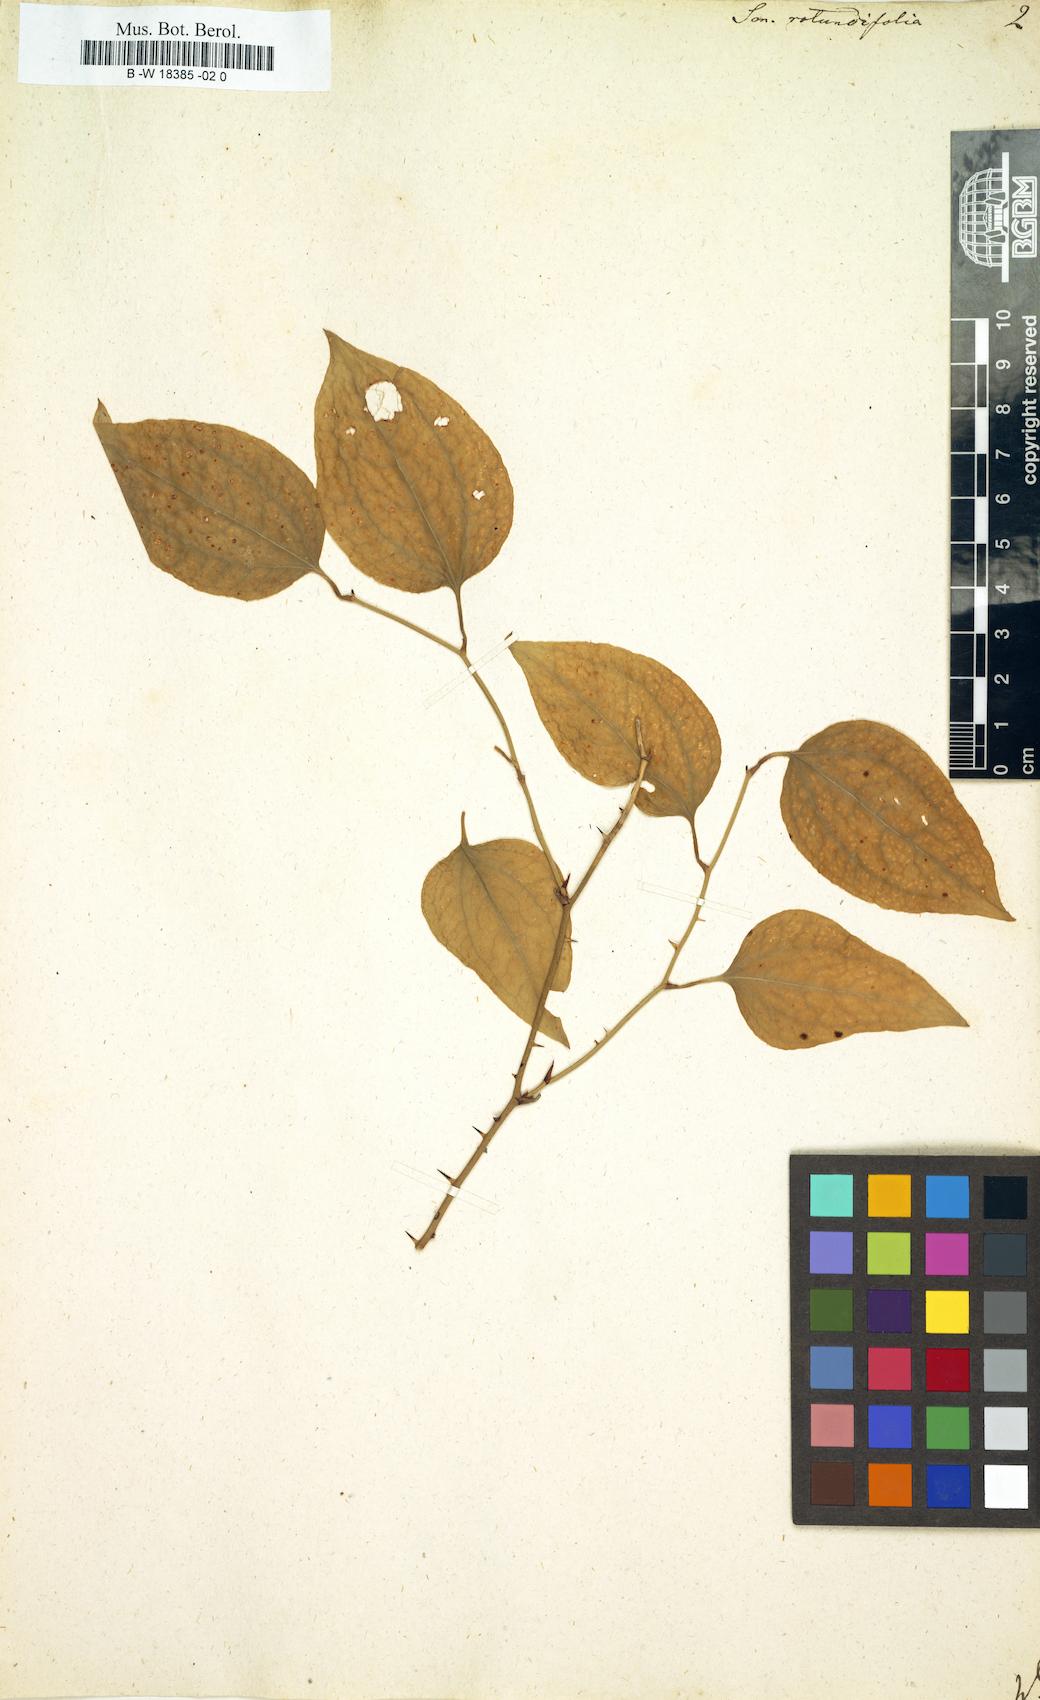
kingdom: Plantae
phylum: Tracheophyta
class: Liliopsida
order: Liliales
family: Smilacaceae
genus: Smilax
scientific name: Smilax rotundifolia
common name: Bullbriar
